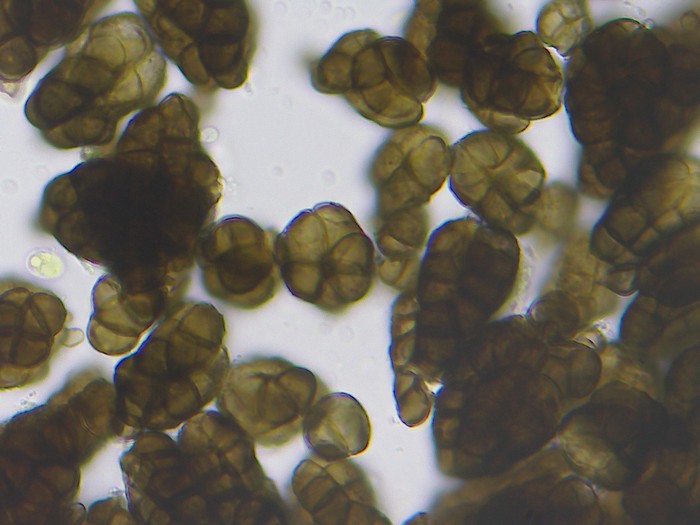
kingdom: Fungi
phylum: Ascomycota
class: Dothideomycetes
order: Dothideales
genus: Monodictys
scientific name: Monodictys putredinis
